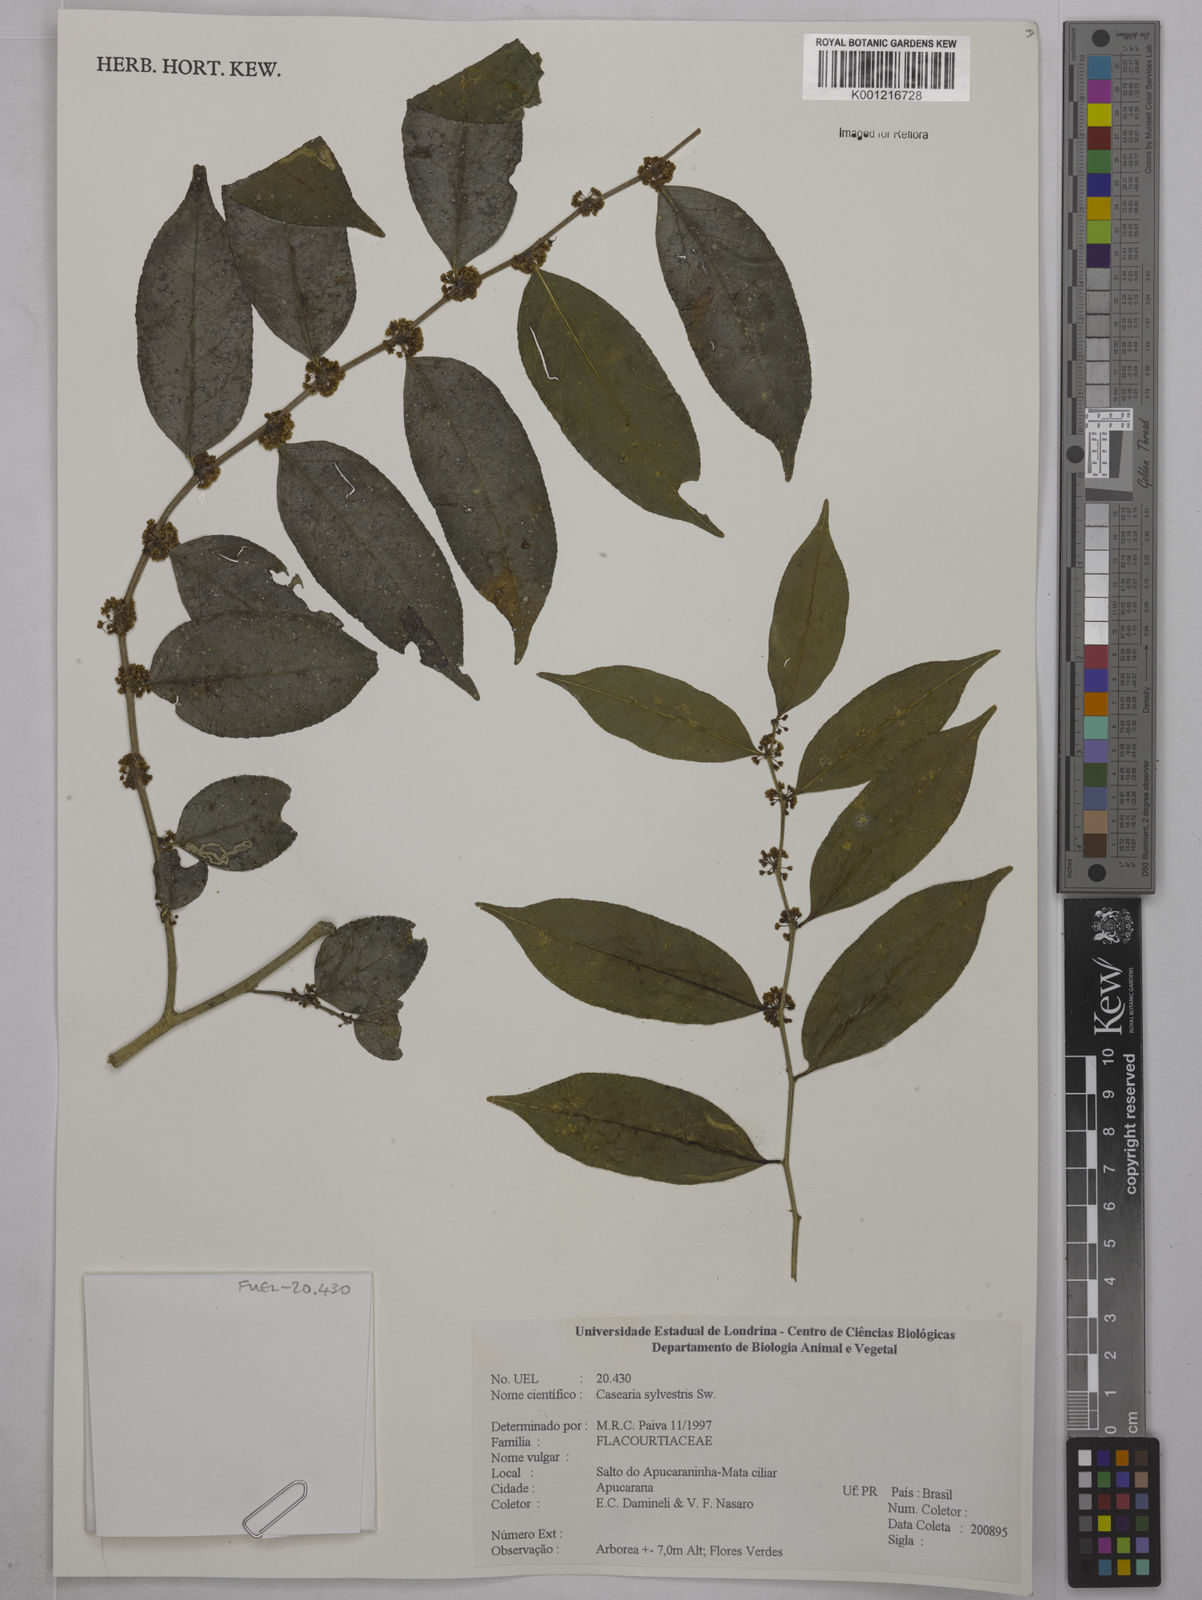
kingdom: Plantae
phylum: Tracheophyta
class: Magnoliopsida
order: Malpighiales
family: Salicaceae
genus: Casearia
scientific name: Casearia sylvestris
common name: Wild sage
